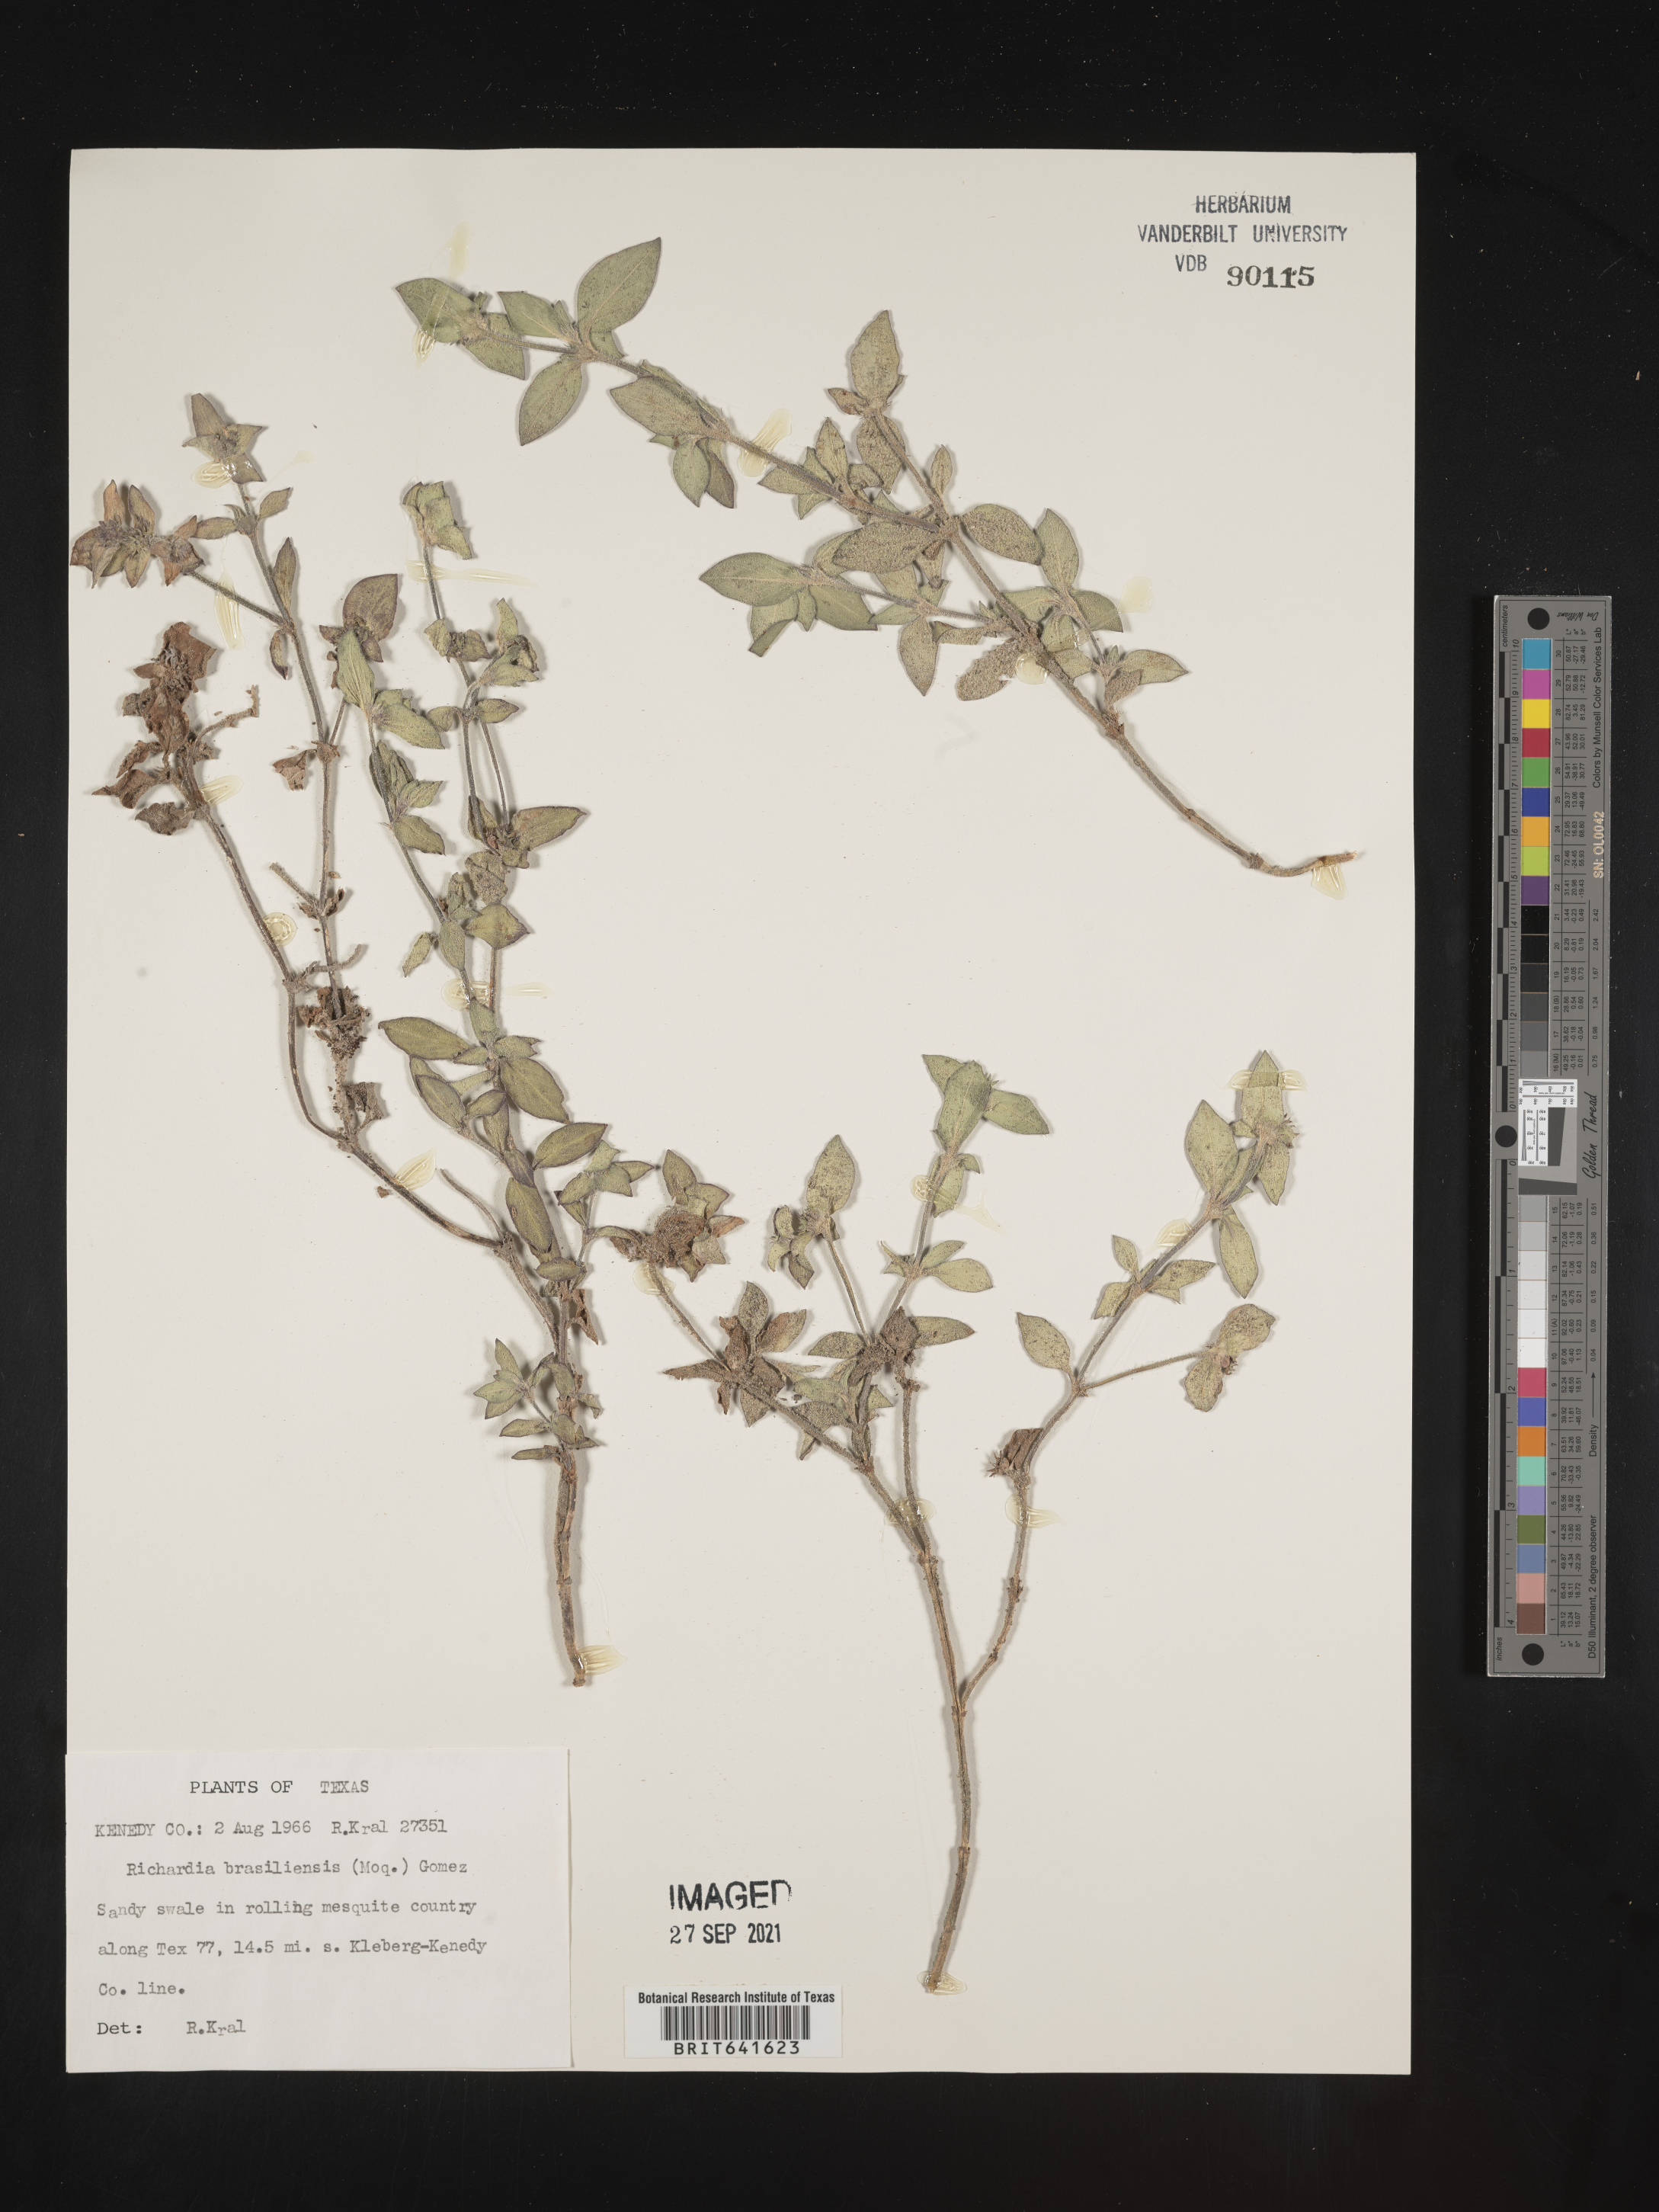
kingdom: Plantae
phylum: Tracheophyta
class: Magnoliopsida
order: Gentianales
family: Rubiaceae
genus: Richardia
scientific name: Richardia brasiliensis
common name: Tropical mexican clover
